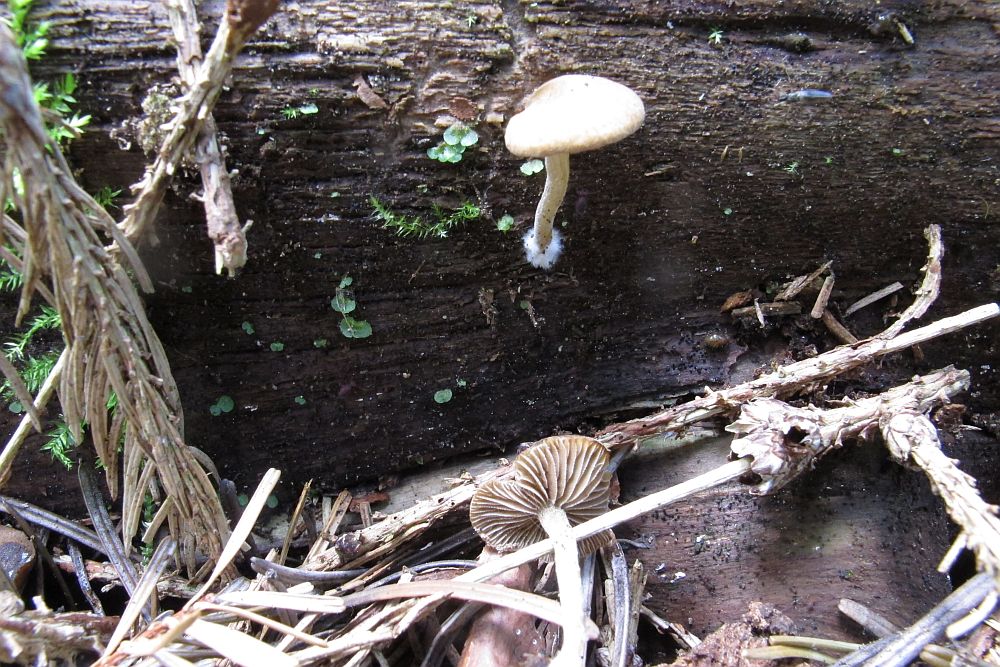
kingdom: Fungi
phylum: Basidiomycota
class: Agaricomycetes
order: Agaricales
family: Crepidotaceae
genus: Simocybe
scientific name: Simocybe centunculus
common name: enlig skyggehat
